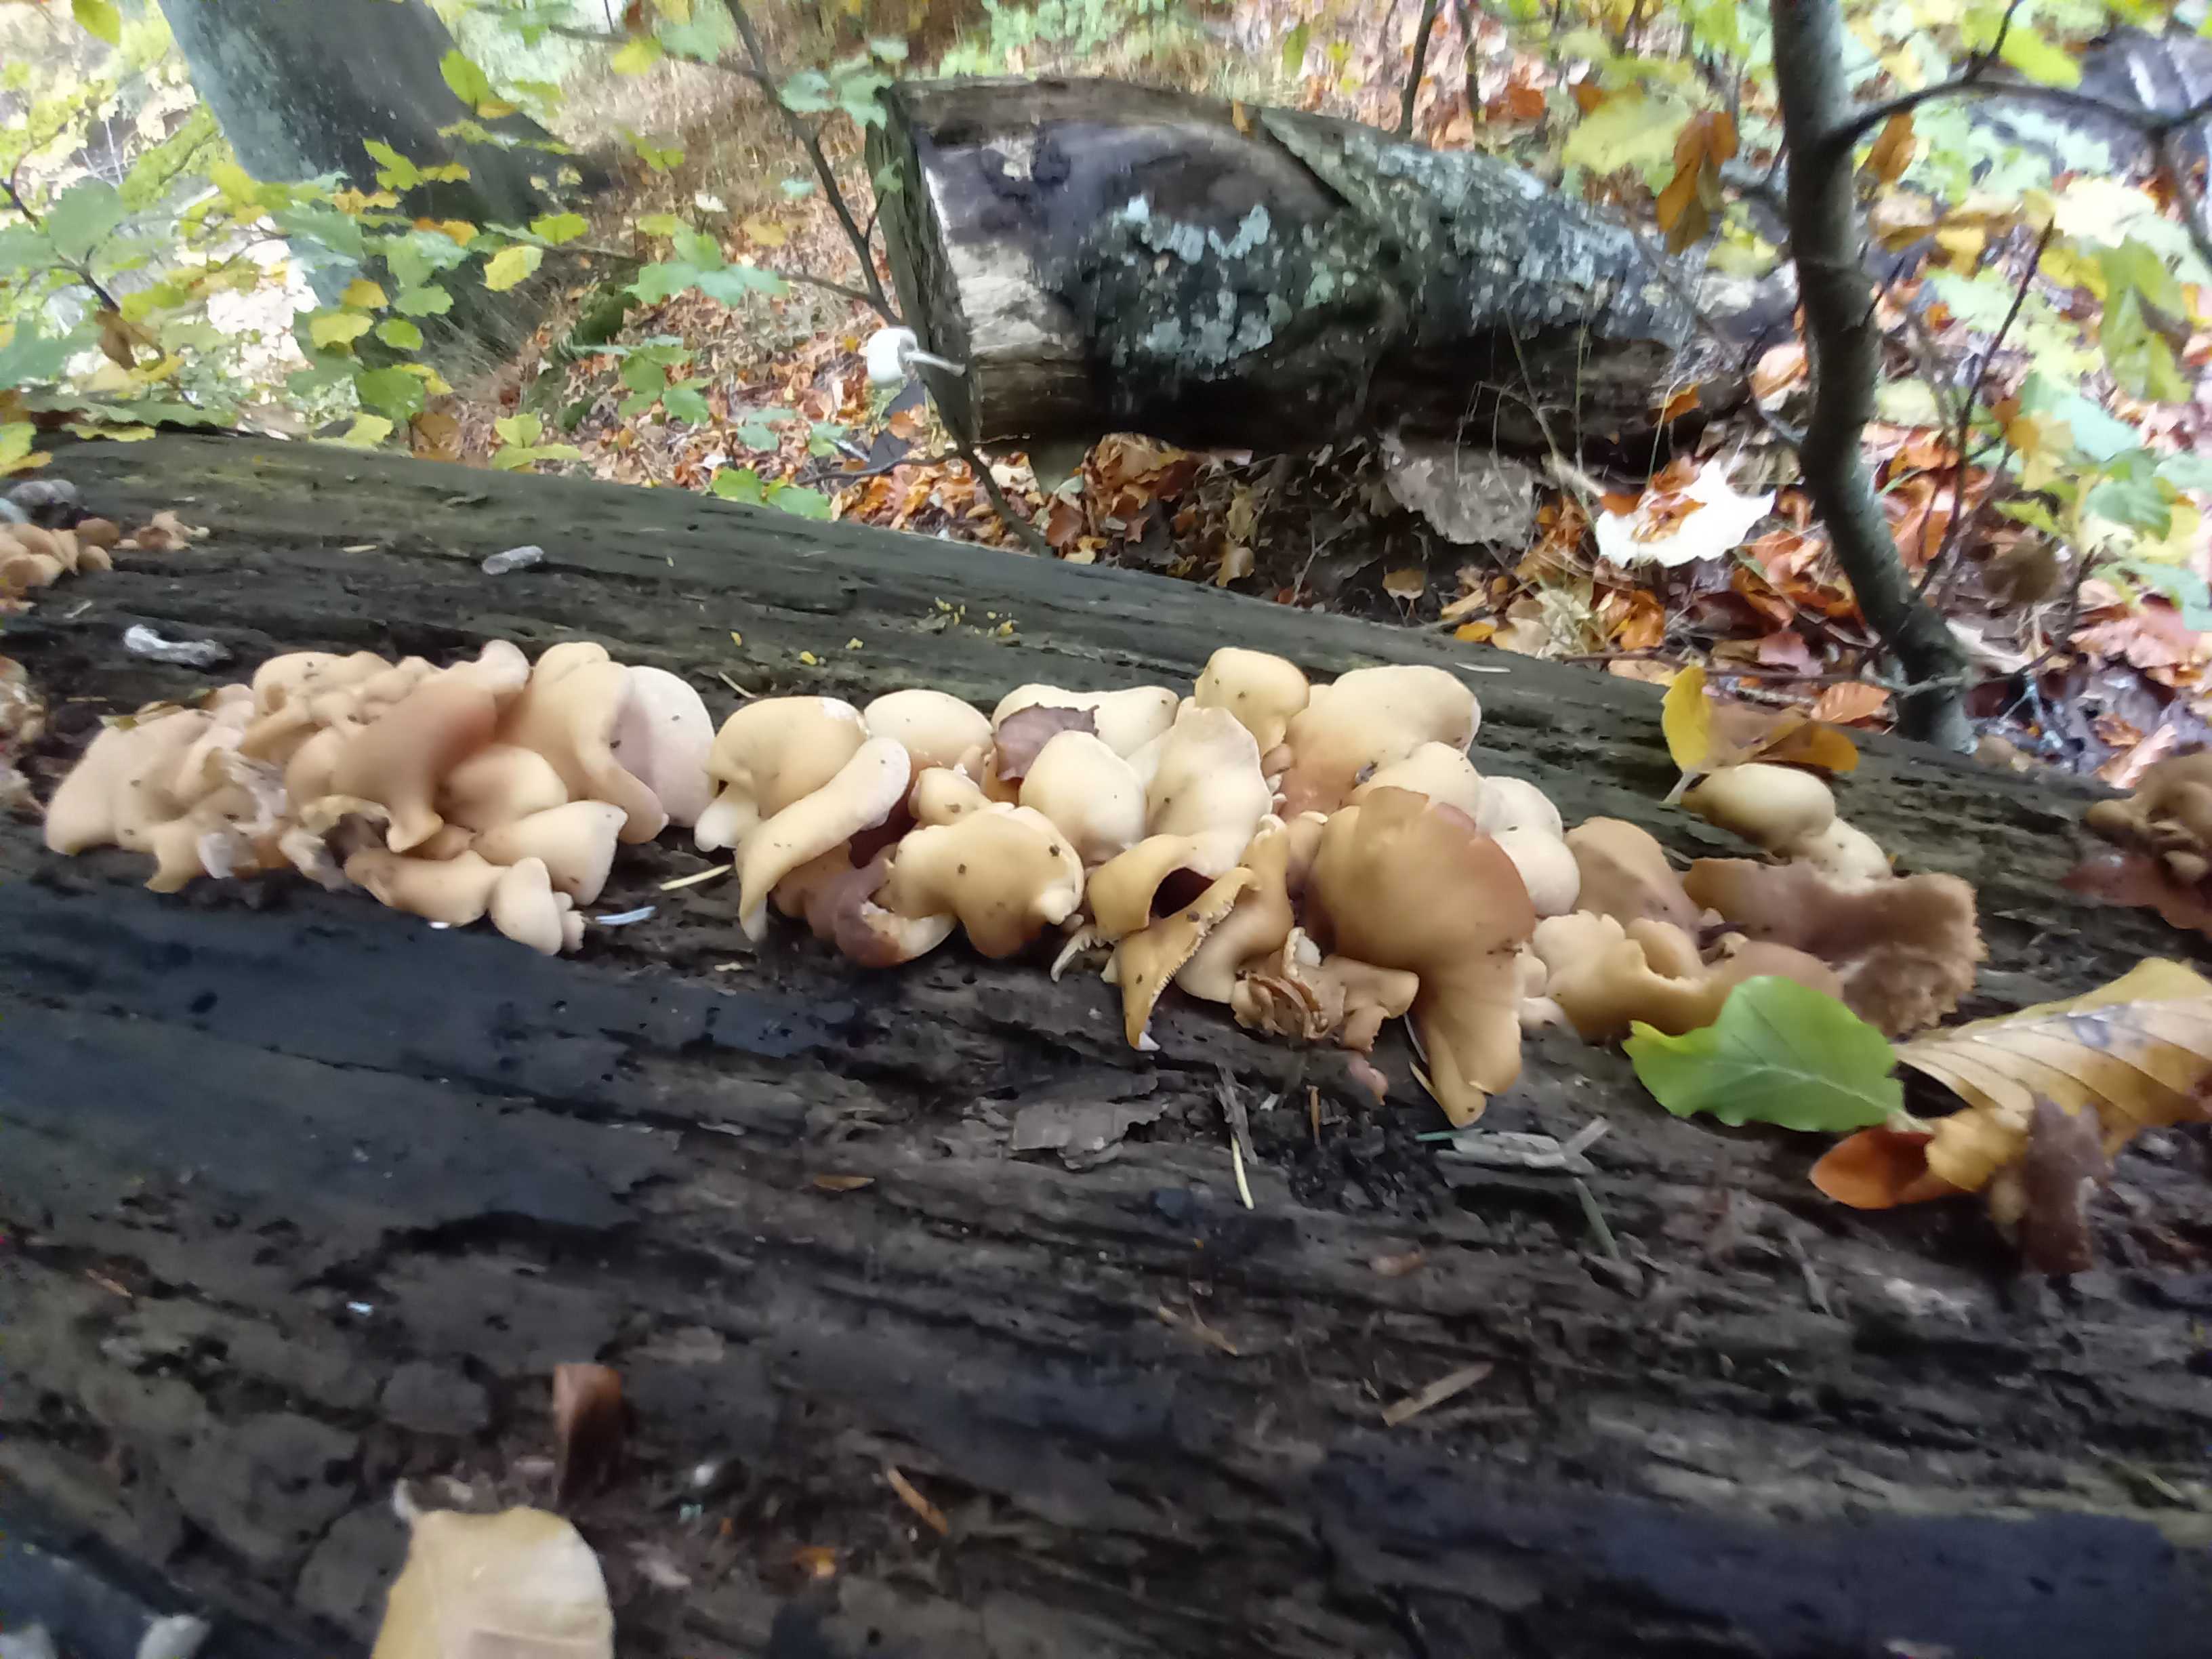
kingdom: Fungi
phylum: Basidiomycota
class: Agaricomycetes
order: Russulales
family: Auriscalpiaceae
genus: Lentinellus
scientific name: Lentinellus ursinus
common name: børstehåret savbladhat
